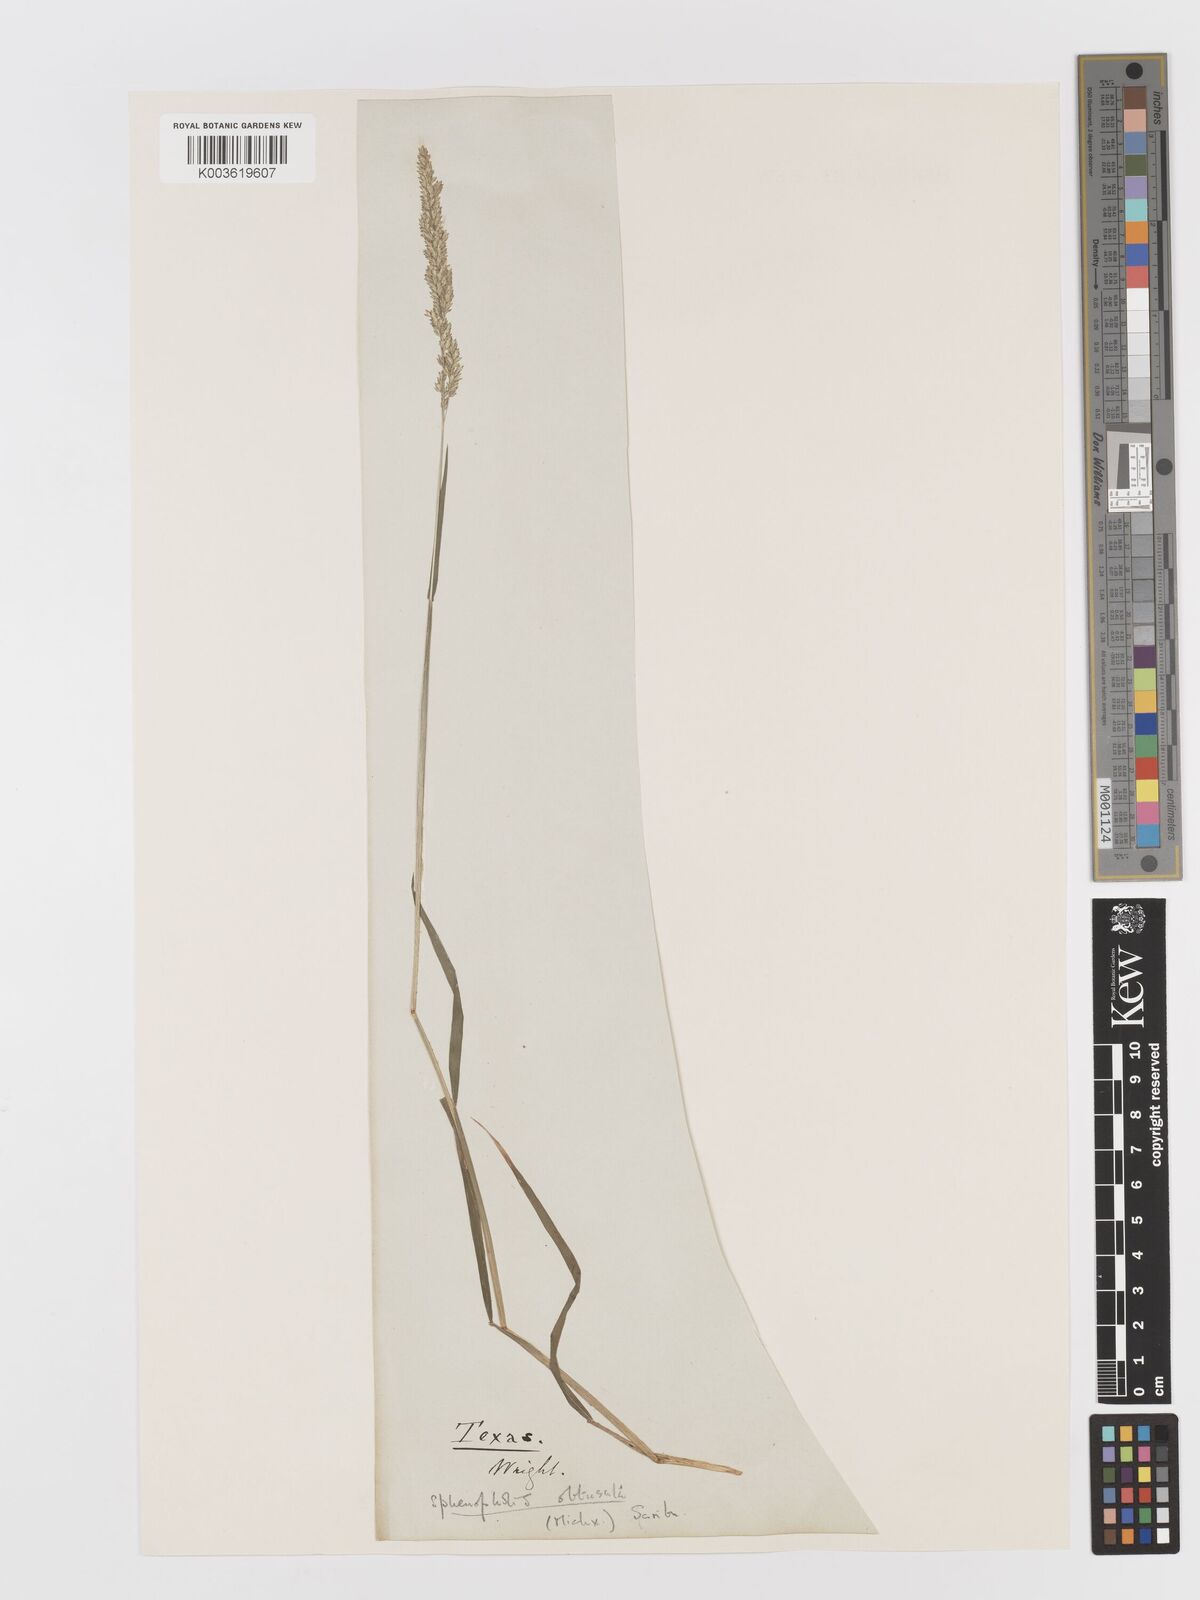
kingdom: Plantae
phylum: Tracheophyta
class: Liliopsida
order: Poales
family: Poaceae
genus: Sphenopholis
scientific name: Sphenopholis obtusata
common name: Prairie grass
